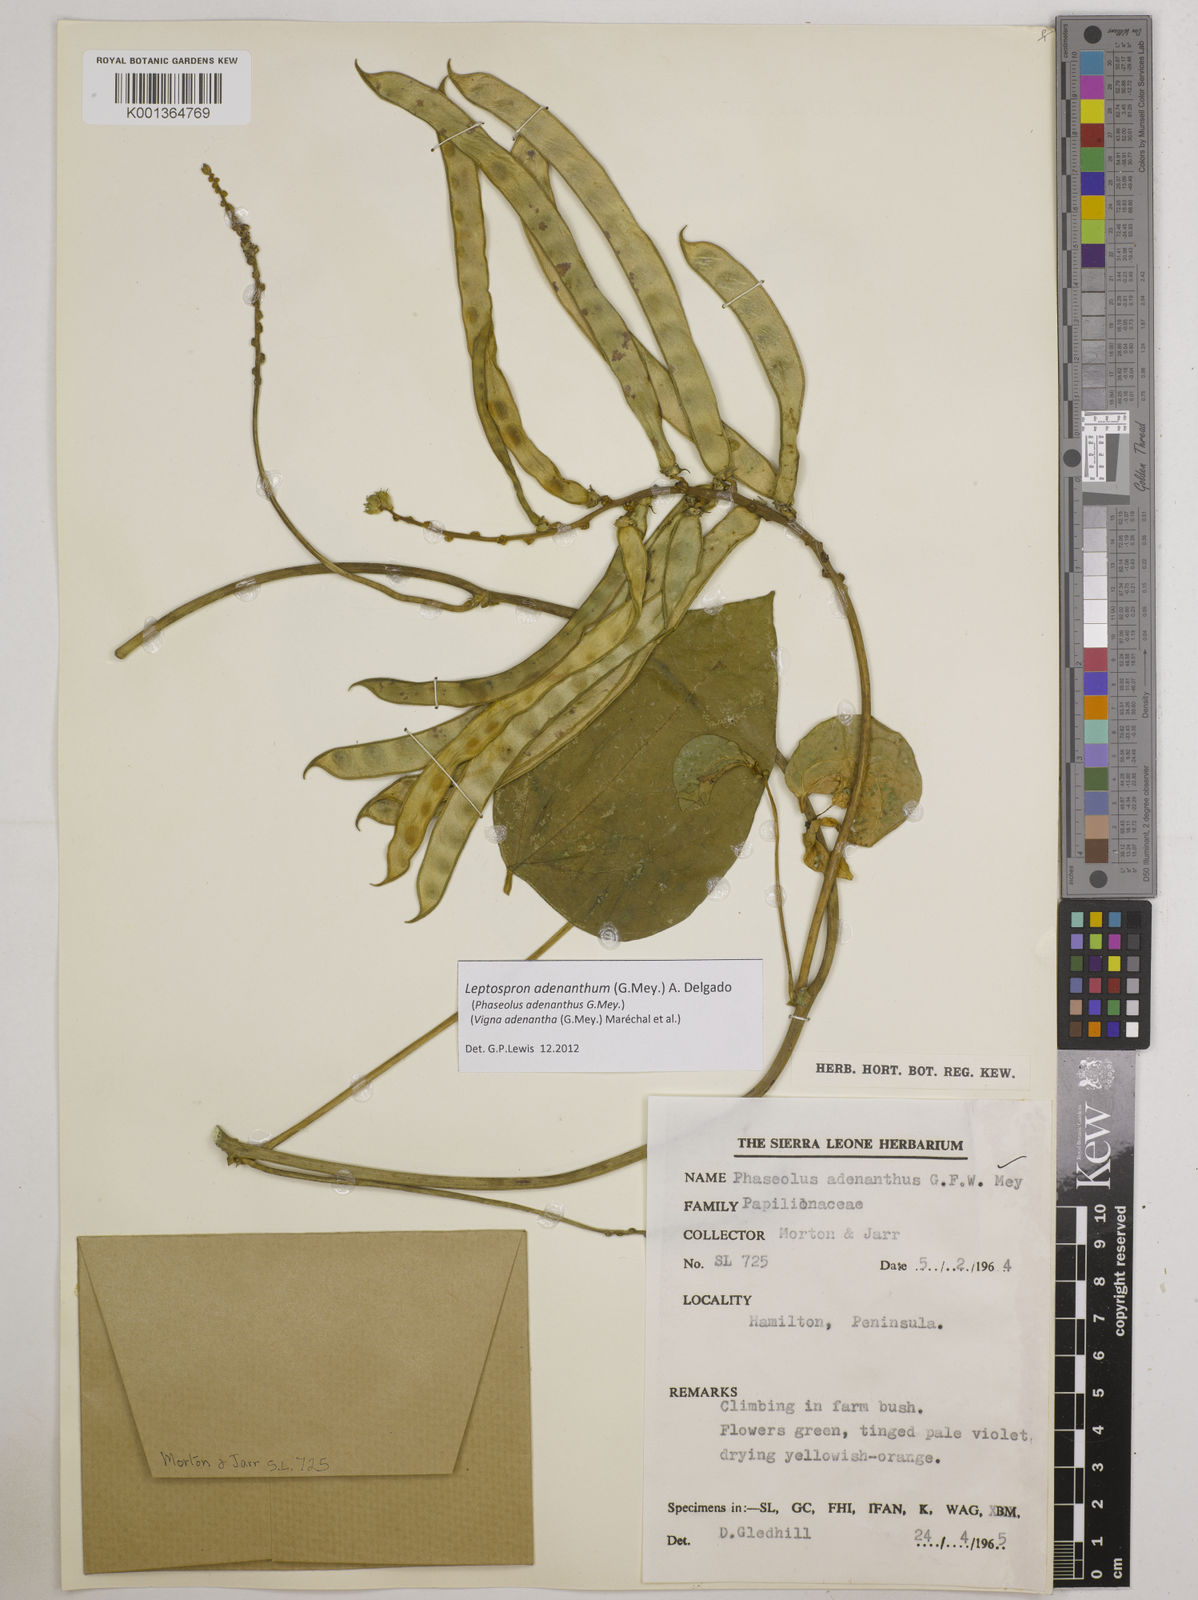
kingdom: Plantae
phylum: Tracheophyta
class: Magnoliopsida
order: Fabales
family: Fabaceae
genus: Leptospron
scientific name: Leptospron adenanthum
